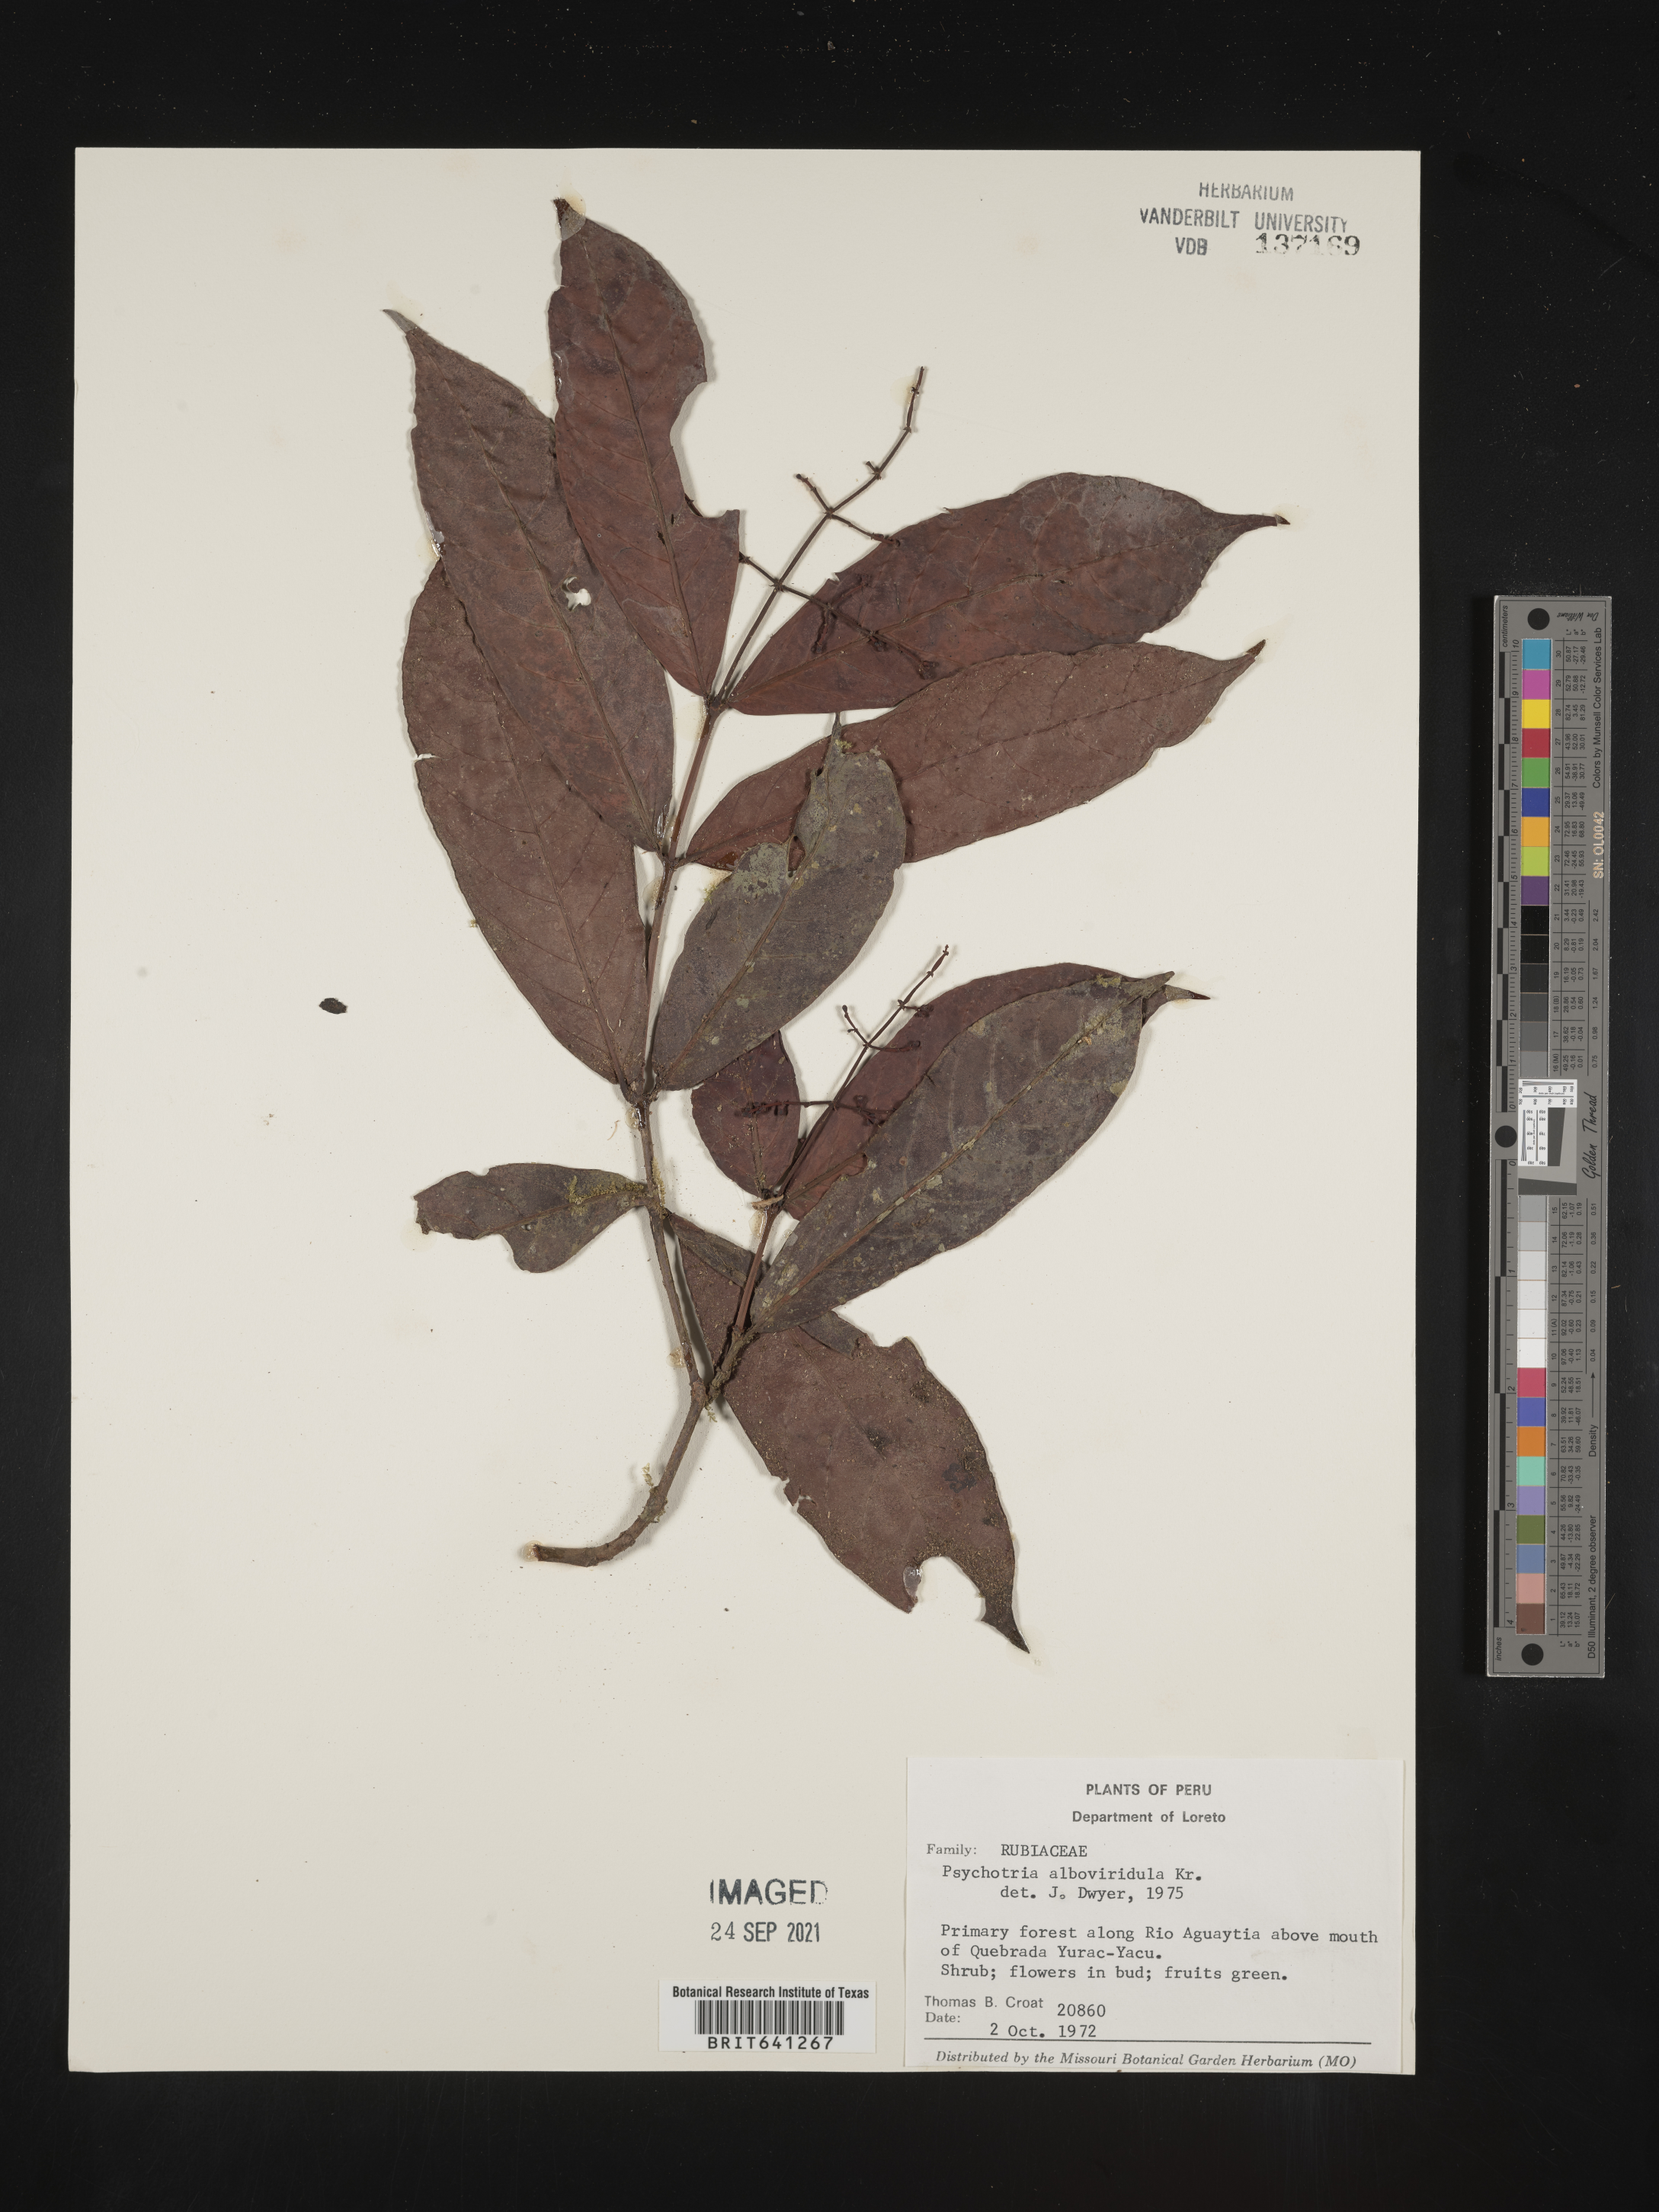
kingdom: Plantae
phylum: Tracheophyta
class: Magnoliopsida
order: Gentianales
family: Rubiaceae
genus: Psychotria
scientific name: Psychotria
